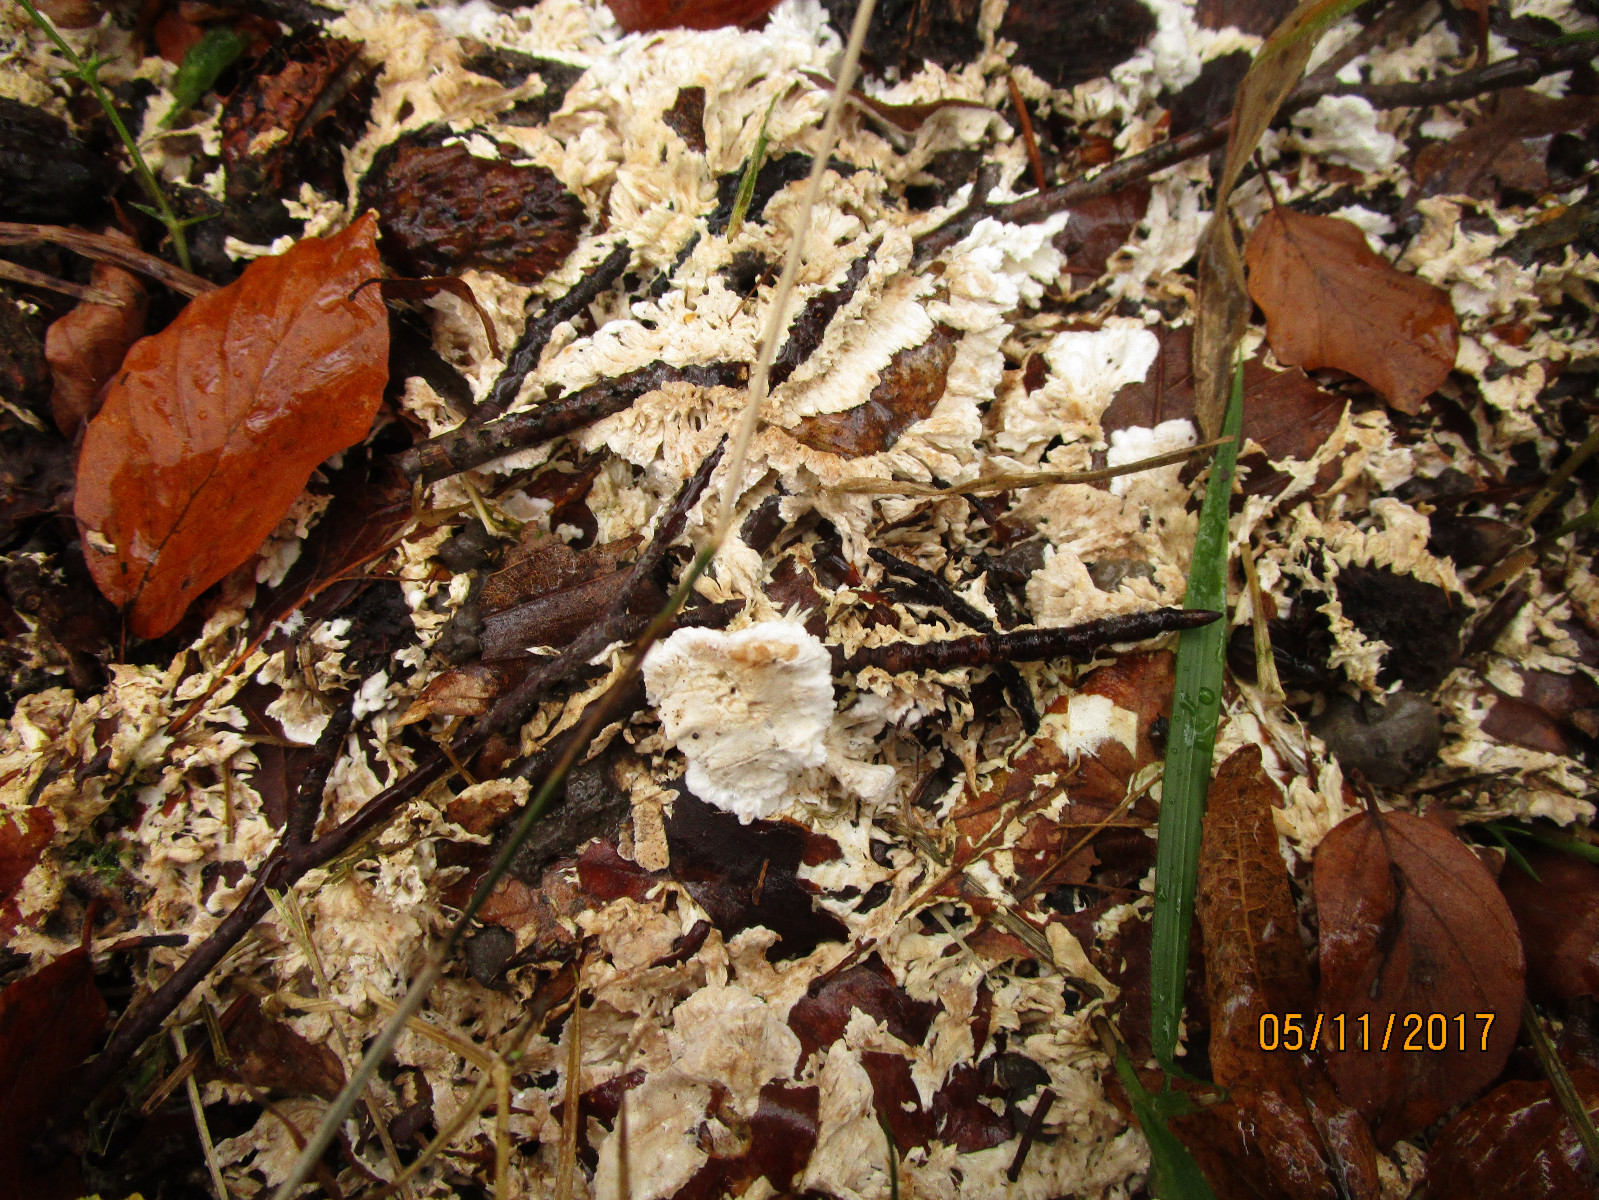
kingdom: Fungi
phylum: Basidiomycota
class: Agaricomycetes
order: Trechisporales
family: Sistotremataceae
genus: Trechispora
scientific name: Trechispora fastidiosa
